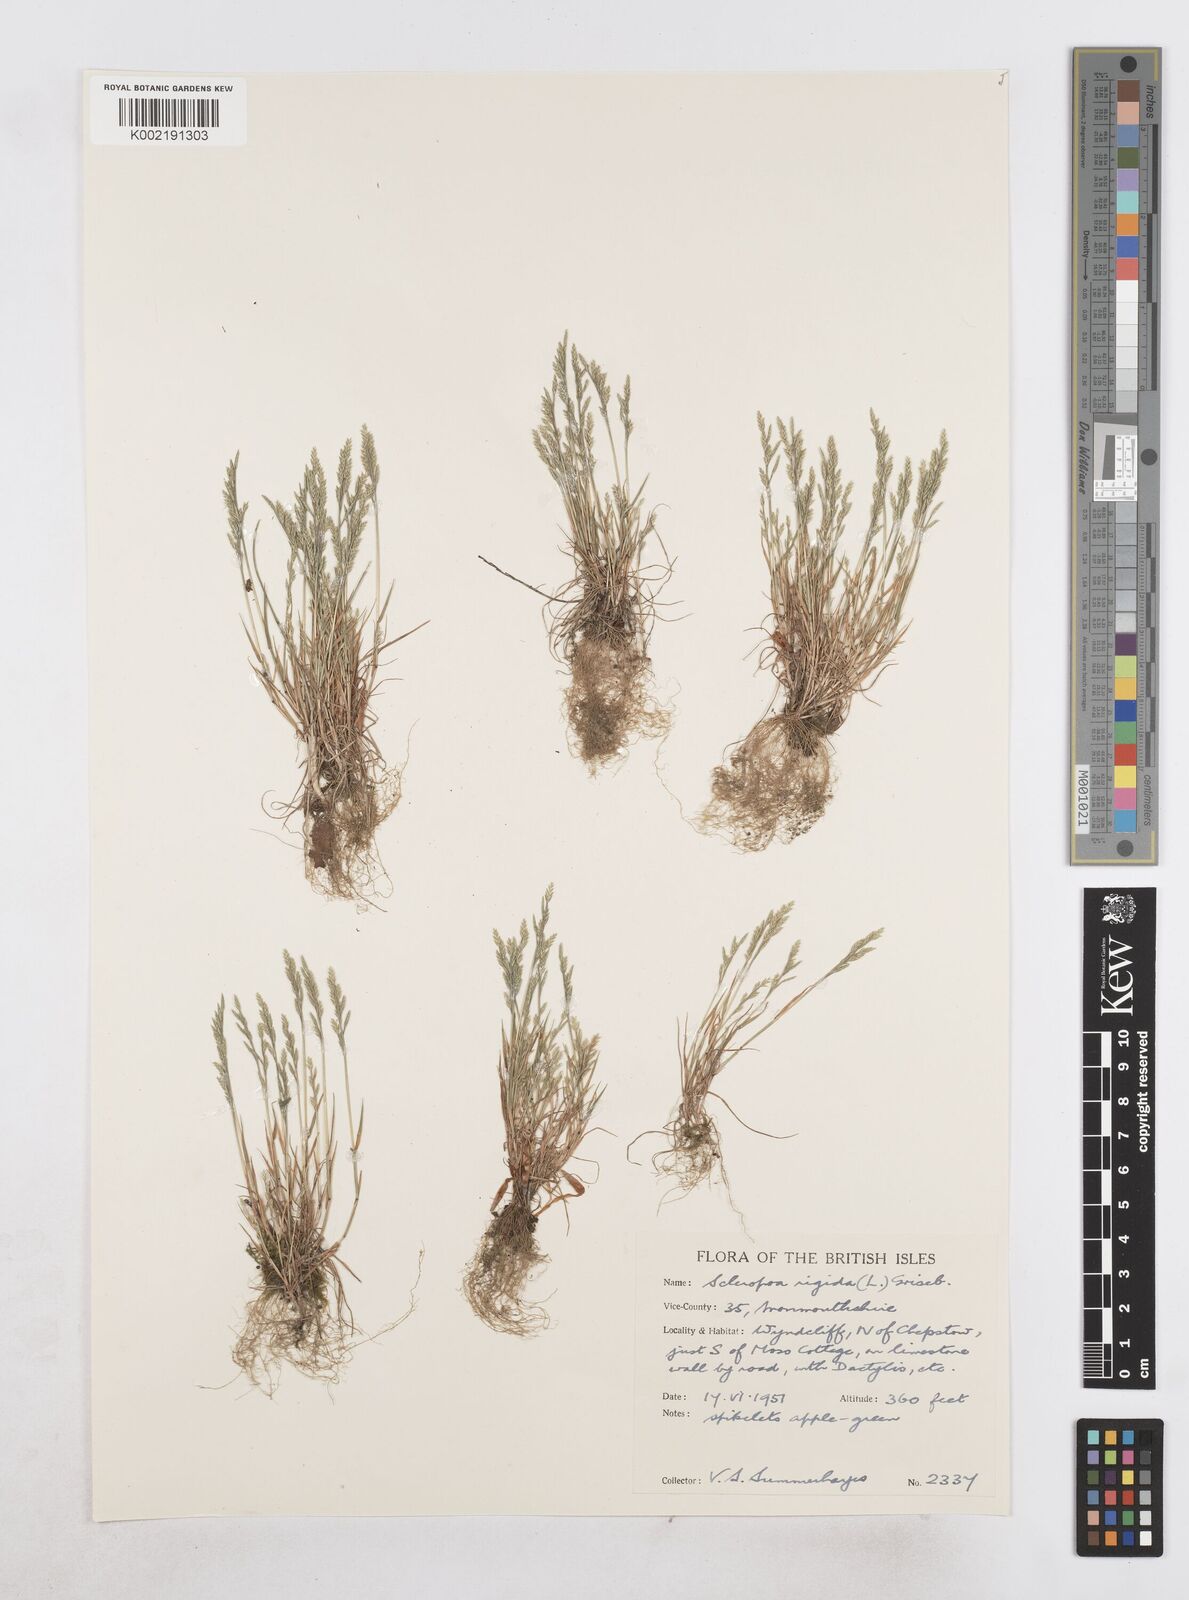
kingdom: Plantae
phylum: Tracheophyta
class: Liliopsida
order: Poales
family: Poaceae
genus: Catapodium
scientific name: Catapodium rigidum
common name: Fern-grass
